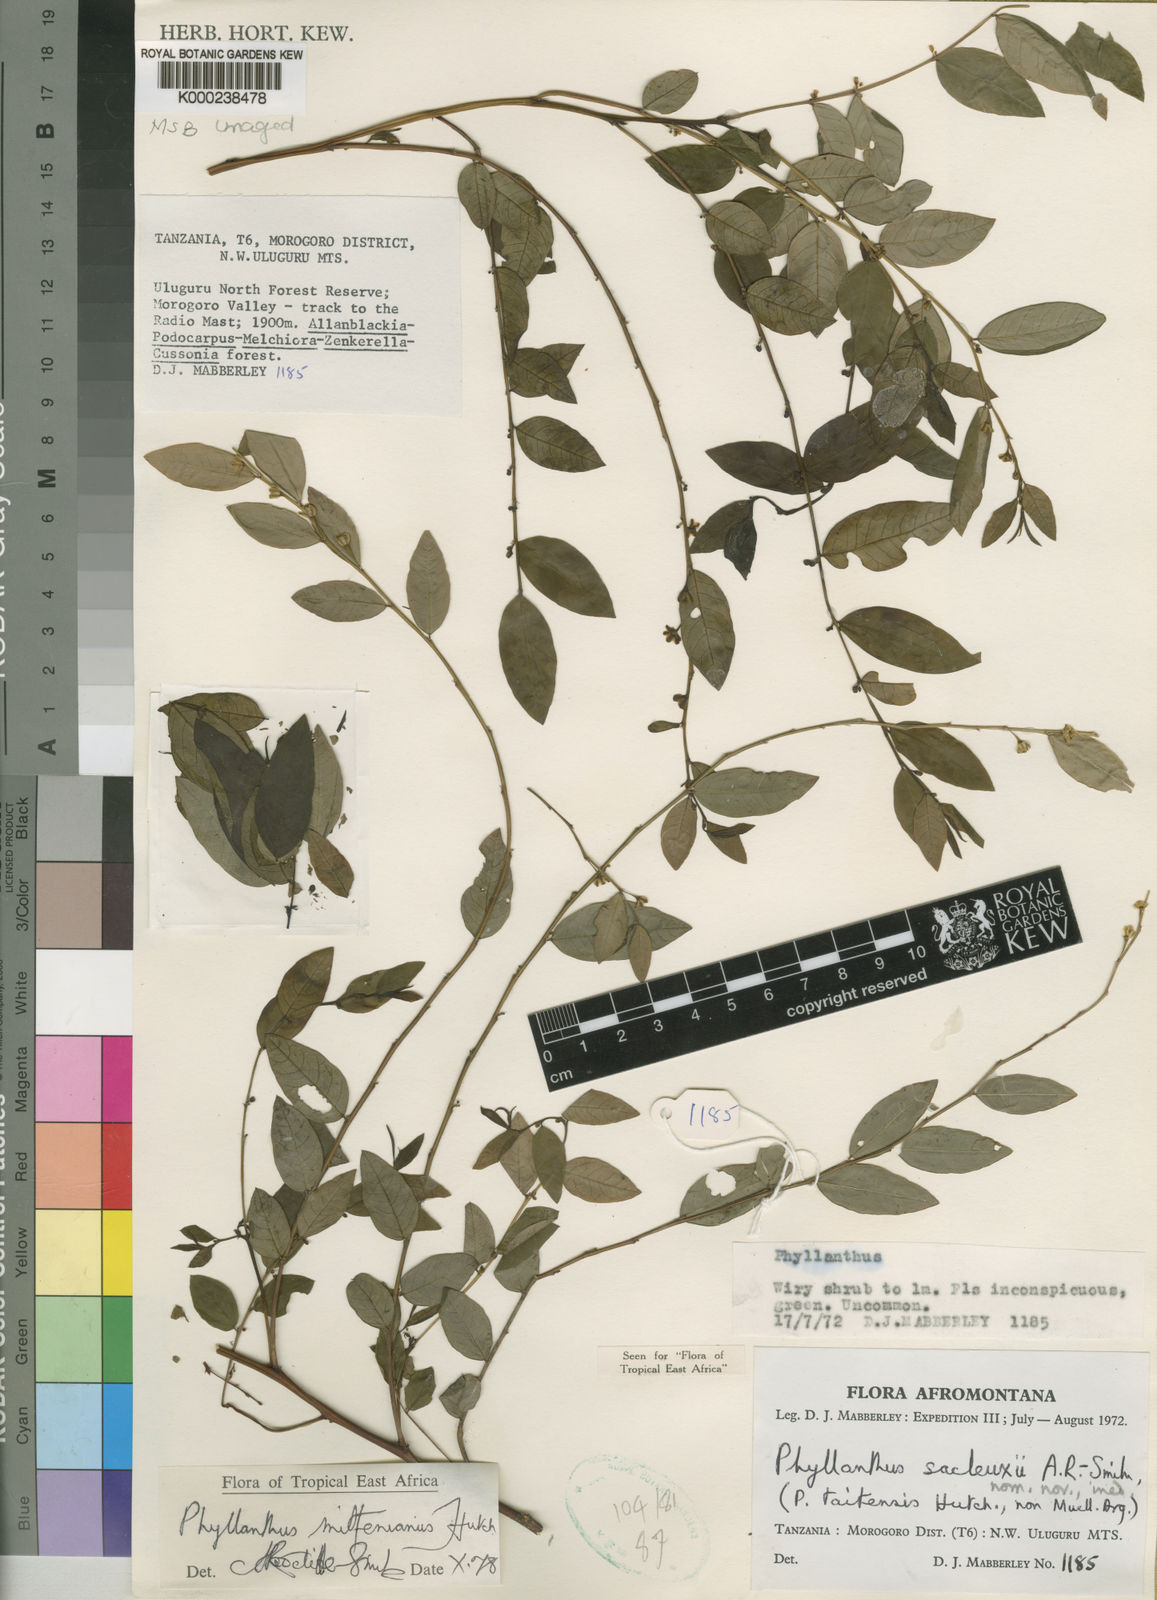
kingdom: Plantae
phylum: Tracheophyta
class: Magnoliopsida
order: Malpighiales
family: Phyllanthaceae
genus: Phyllanthus
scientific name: Phyllanthus mittenianus
